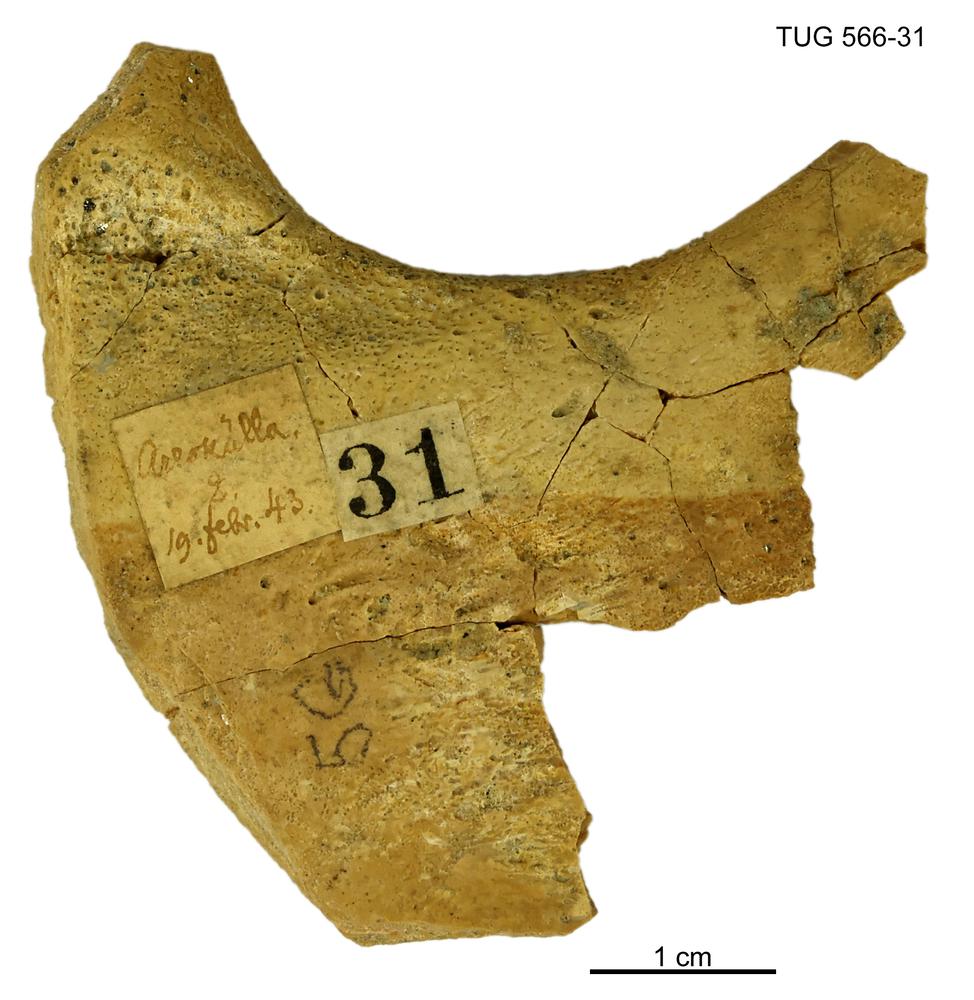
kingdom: Animalia
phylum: Chordata
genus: Homosteus
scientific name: Homosteus sulcatus
